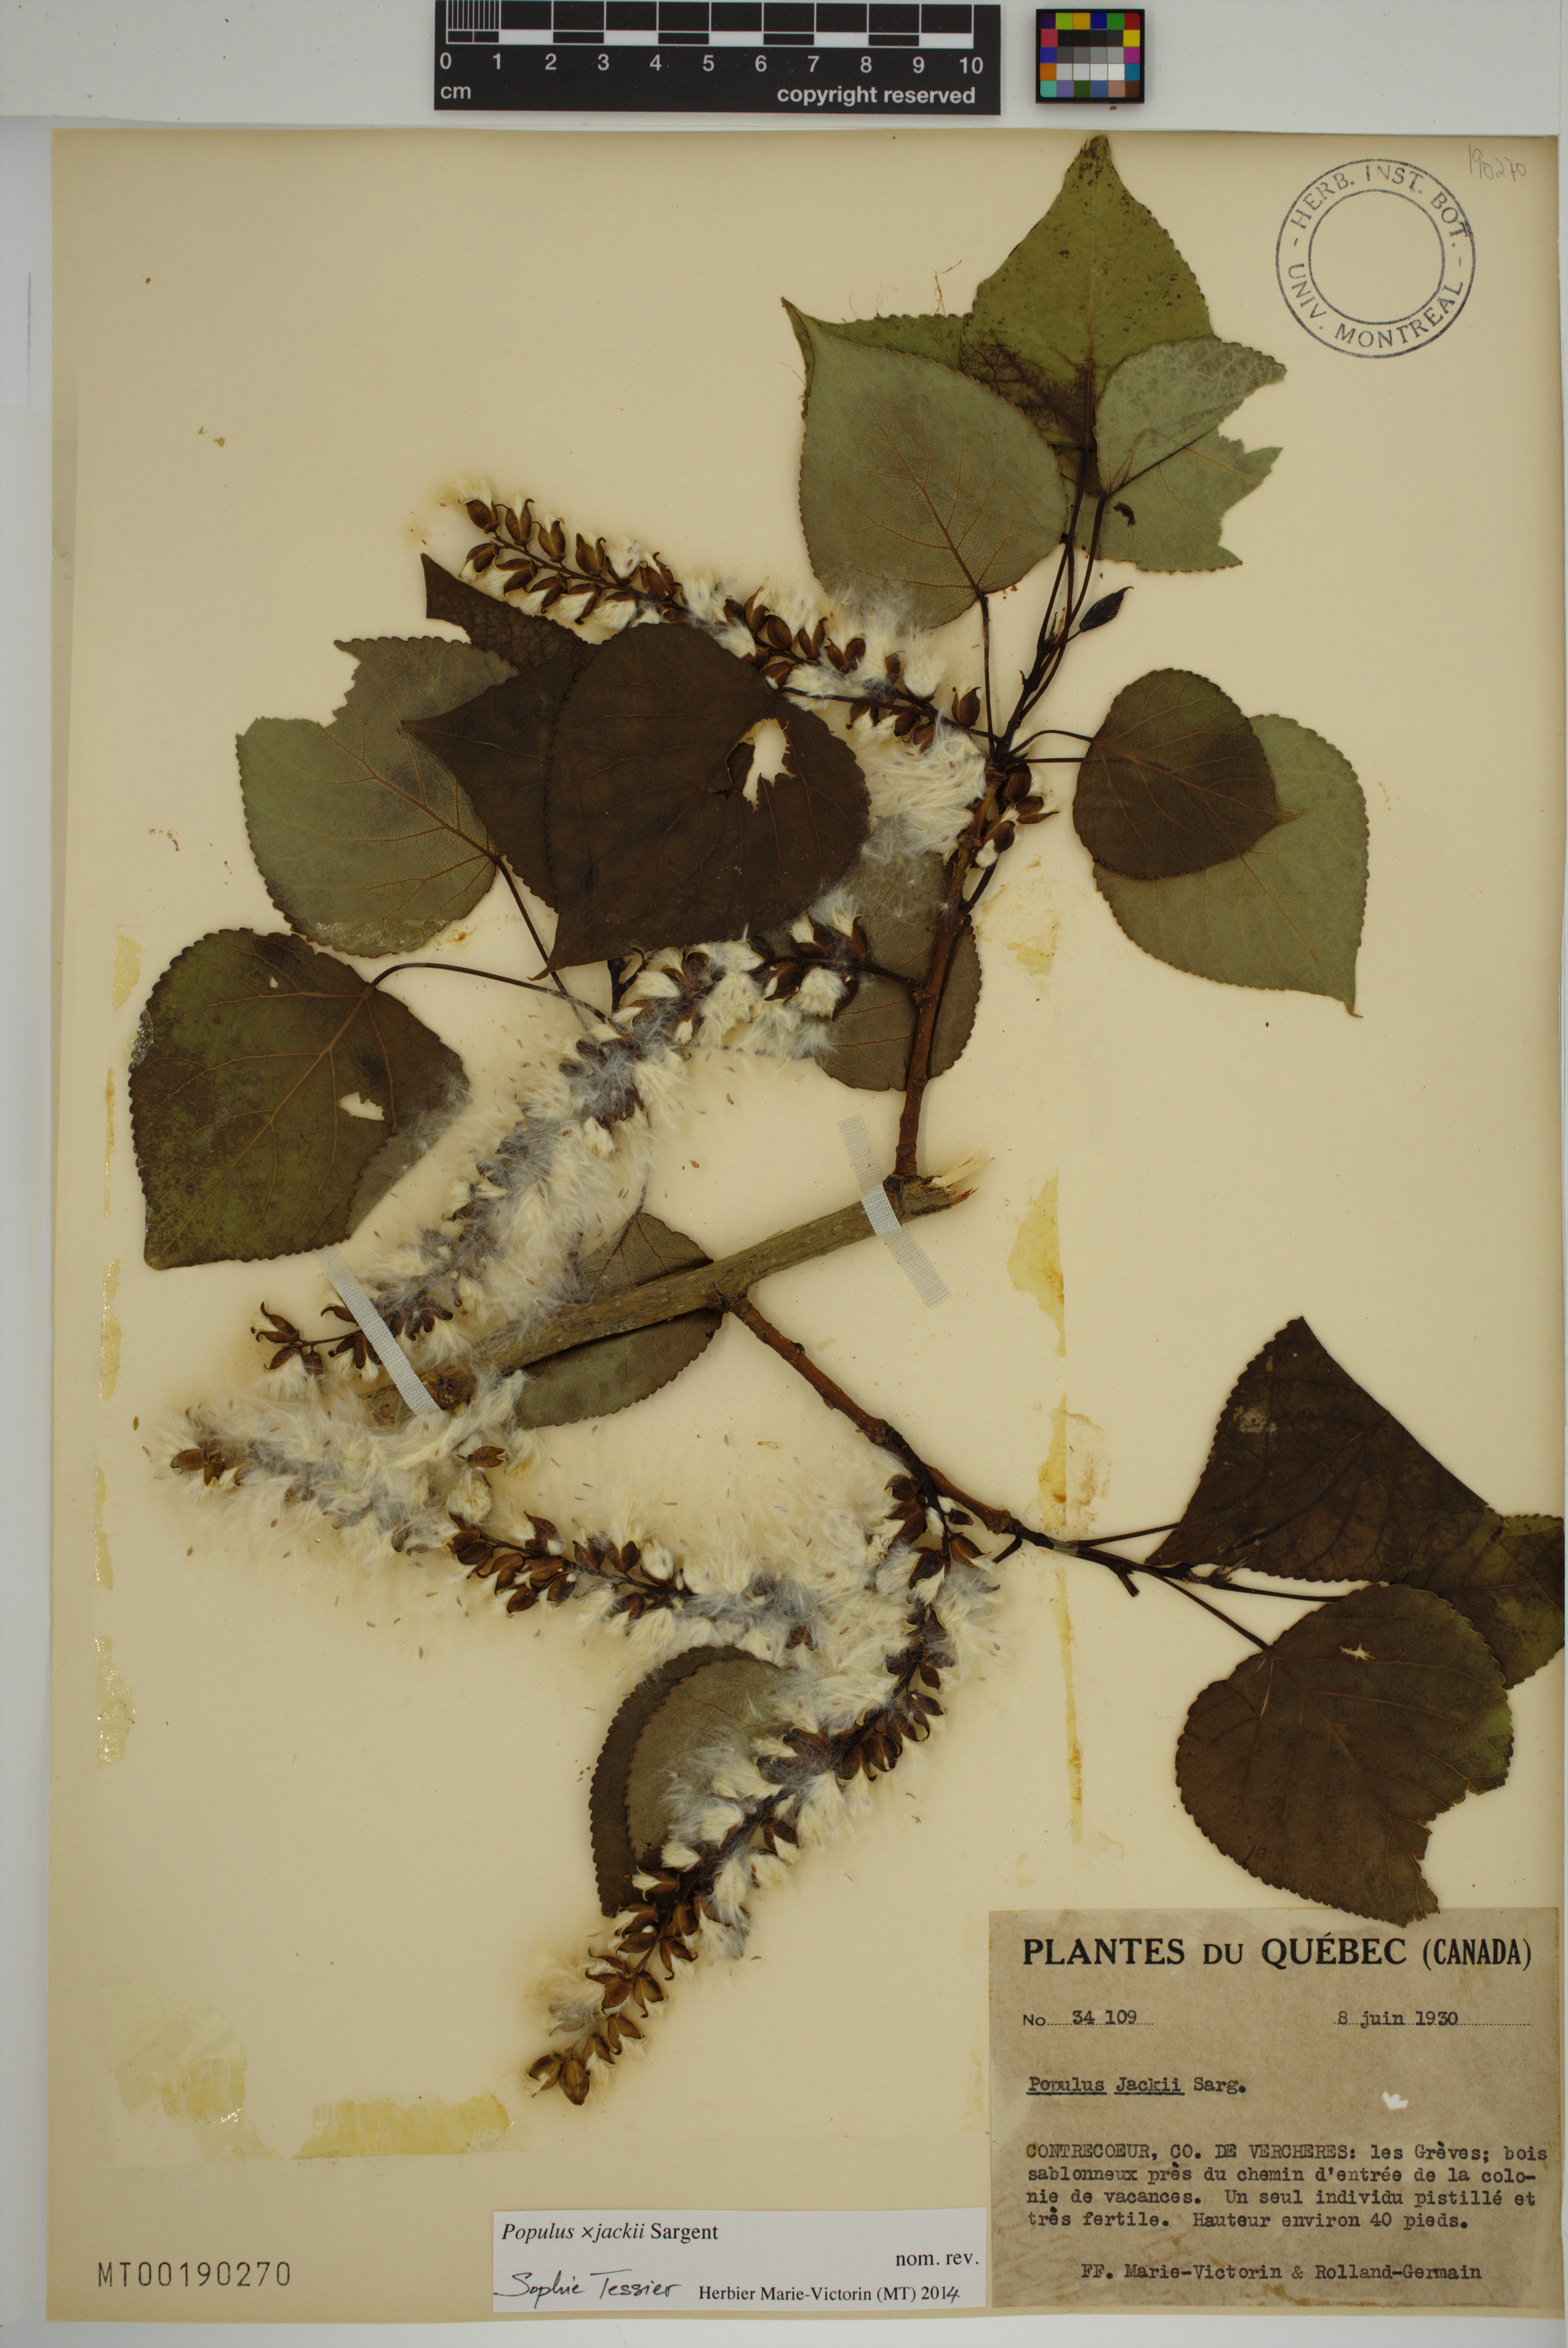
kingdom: Plantae
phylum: Tracheophyta
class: Magnoliopsida
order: Malpighiales
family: Salicaceae
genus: Populus
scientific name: Populus jackii
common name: Balm-of-gilead
